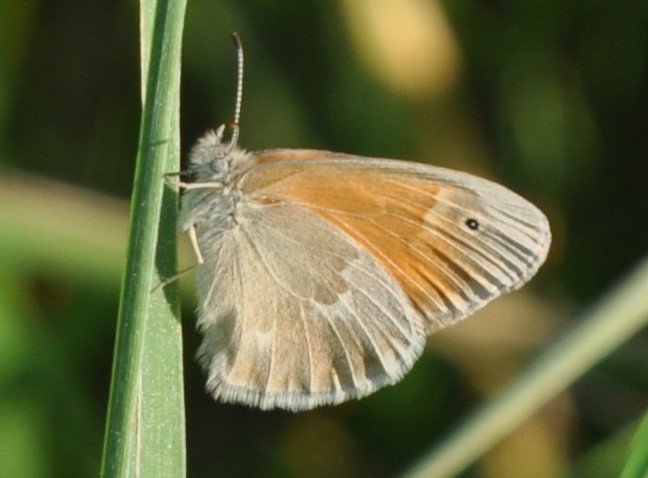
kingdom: Animalia
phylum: Arthropoda
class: Insecta
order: Lepidoptera
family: Nymphalidae
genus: Coenonympha
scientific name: Coenonympha tullia
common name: Large Heath
